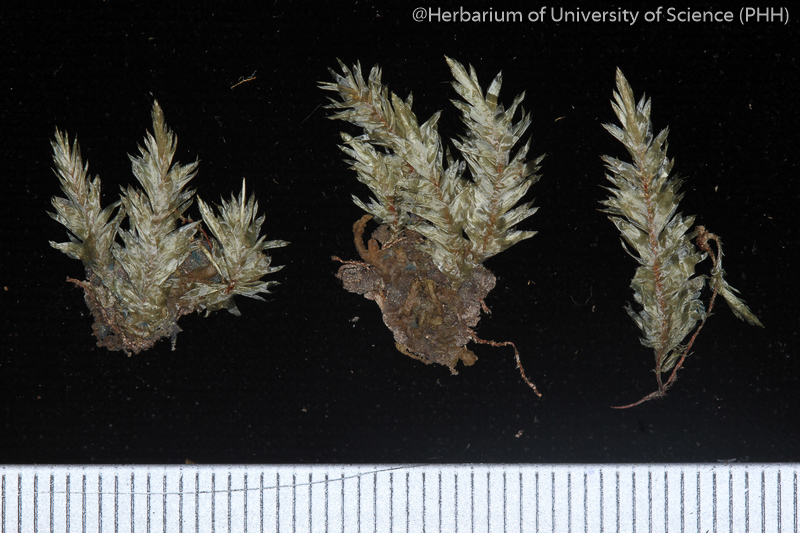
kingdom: Plantae
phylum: Bryophyta
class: Bryopsida
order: Hypnales
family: Pterobryaceae
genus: Cryptogonium
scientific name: Cryptogonium nitidum
